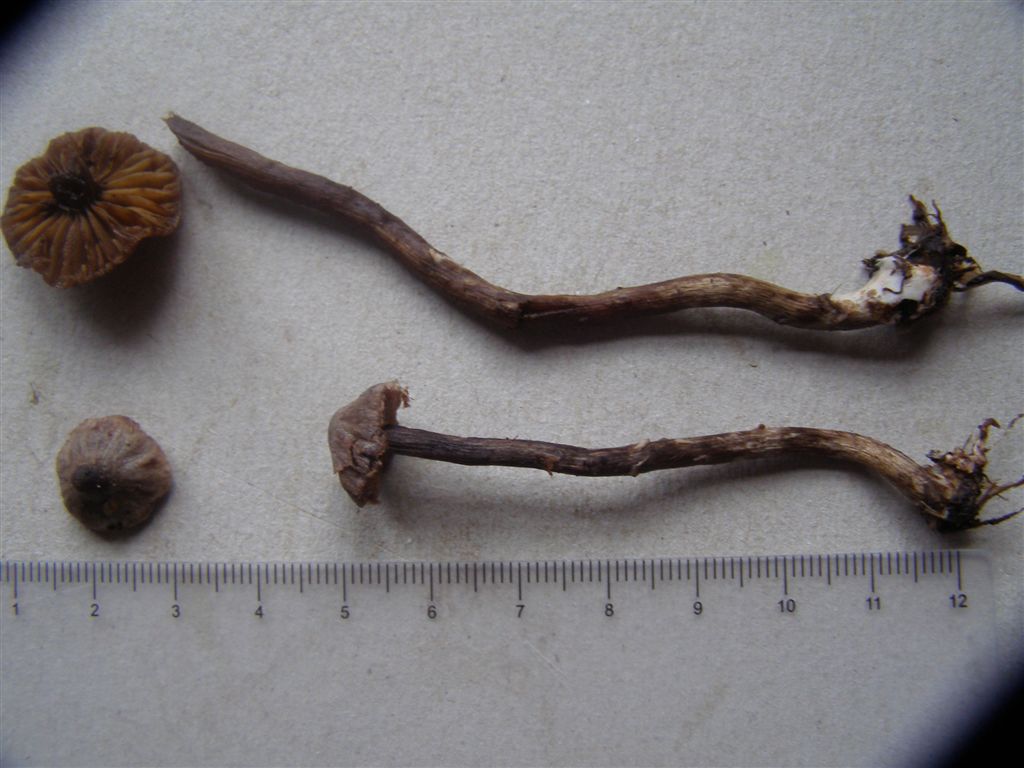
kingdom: Fungi
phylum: Basidiomycota
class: Agaricomycetes
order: Agaricales
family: Cortinariaceae
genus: Cortinarius
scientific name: Cortinarius griseocarneus
